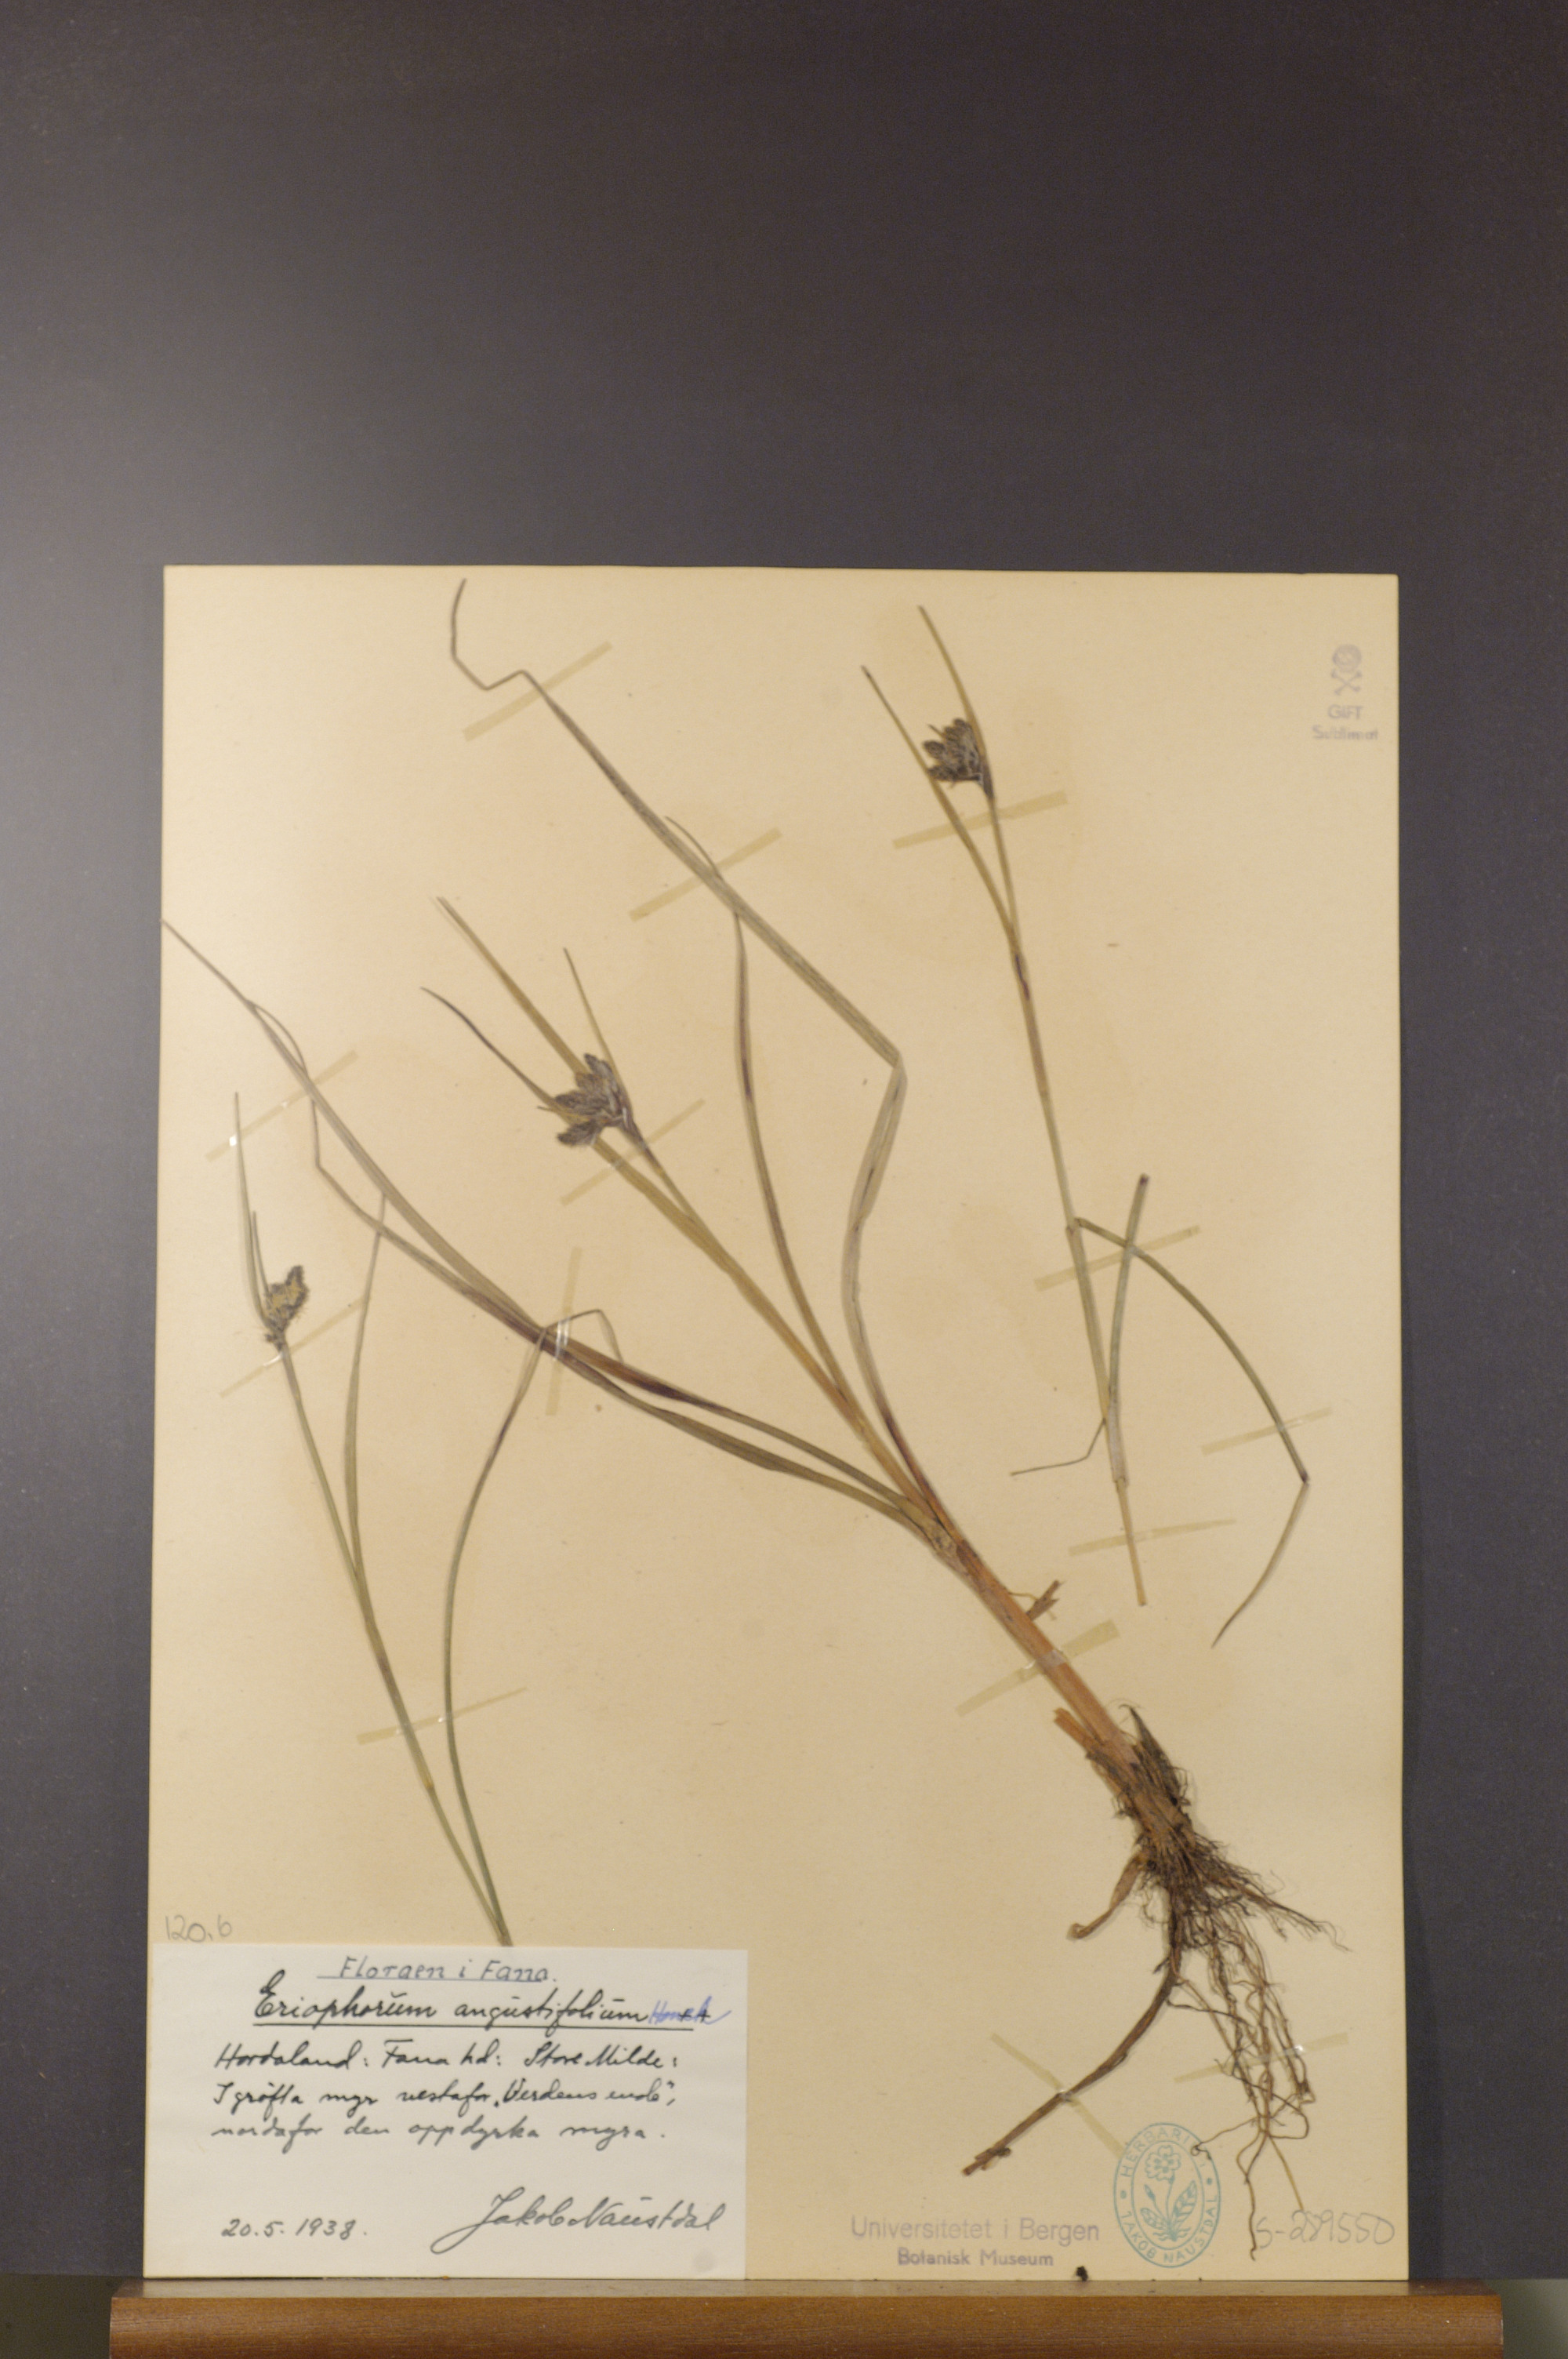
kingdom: Plantae
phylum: Tracheophyta
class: Liliopsida
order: Poales
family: Cyperaceae
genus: Eriophorum
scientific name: Eriophorum angustifolium
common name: Common cottongrass
